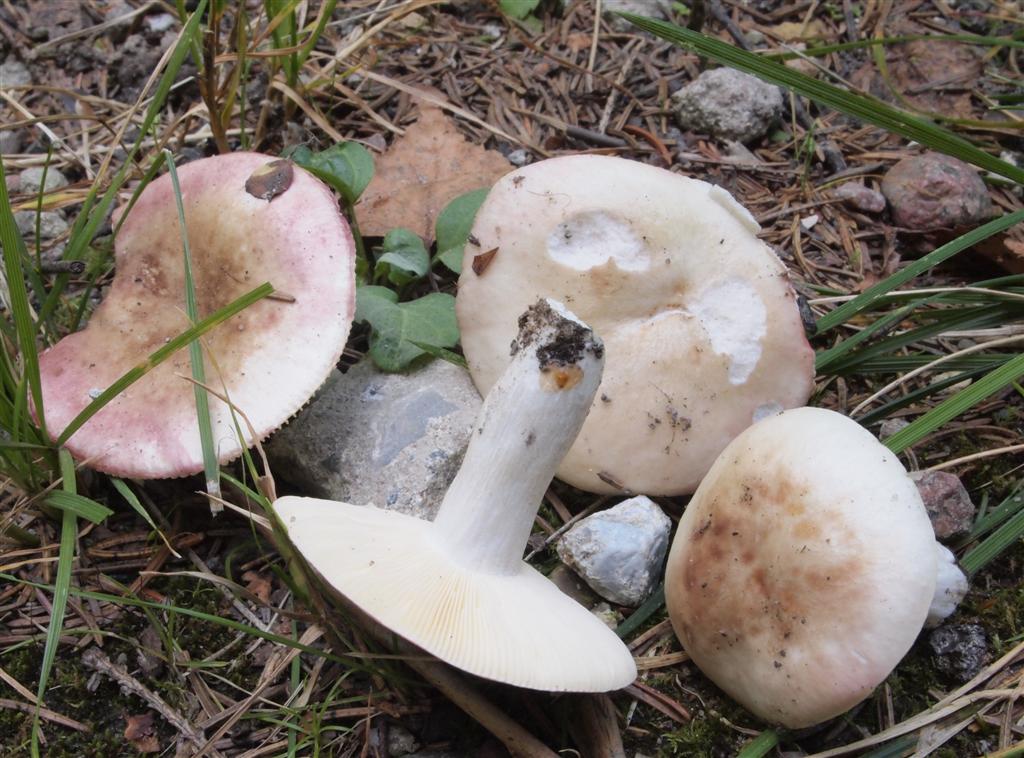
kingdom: Fungi
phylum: Basidiomycota
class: Agaricomycetes
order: Russulales
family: Russulaceae
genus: Russula
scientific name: Russula depallens
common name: falmende skørhat
